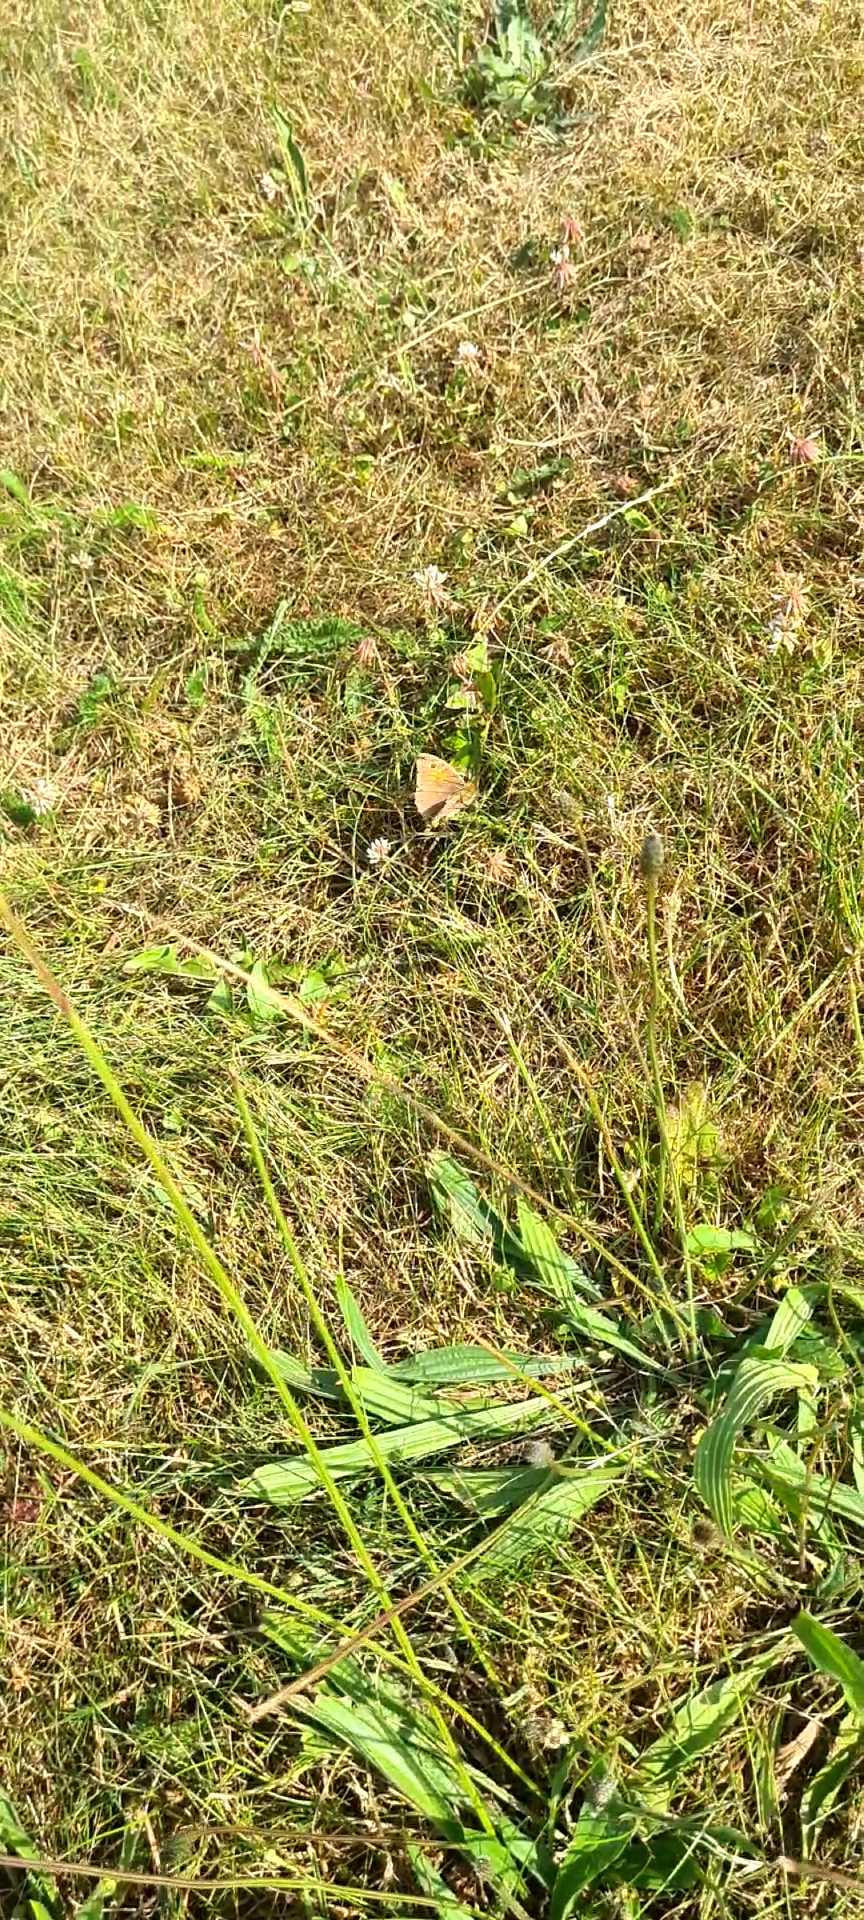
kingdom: Animalia
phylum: Arthropoda
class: Insecta
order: Lepidoptera
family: Nymphalidae
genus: Maniola
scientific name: Maniola jurtina
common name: Græsrandøje
